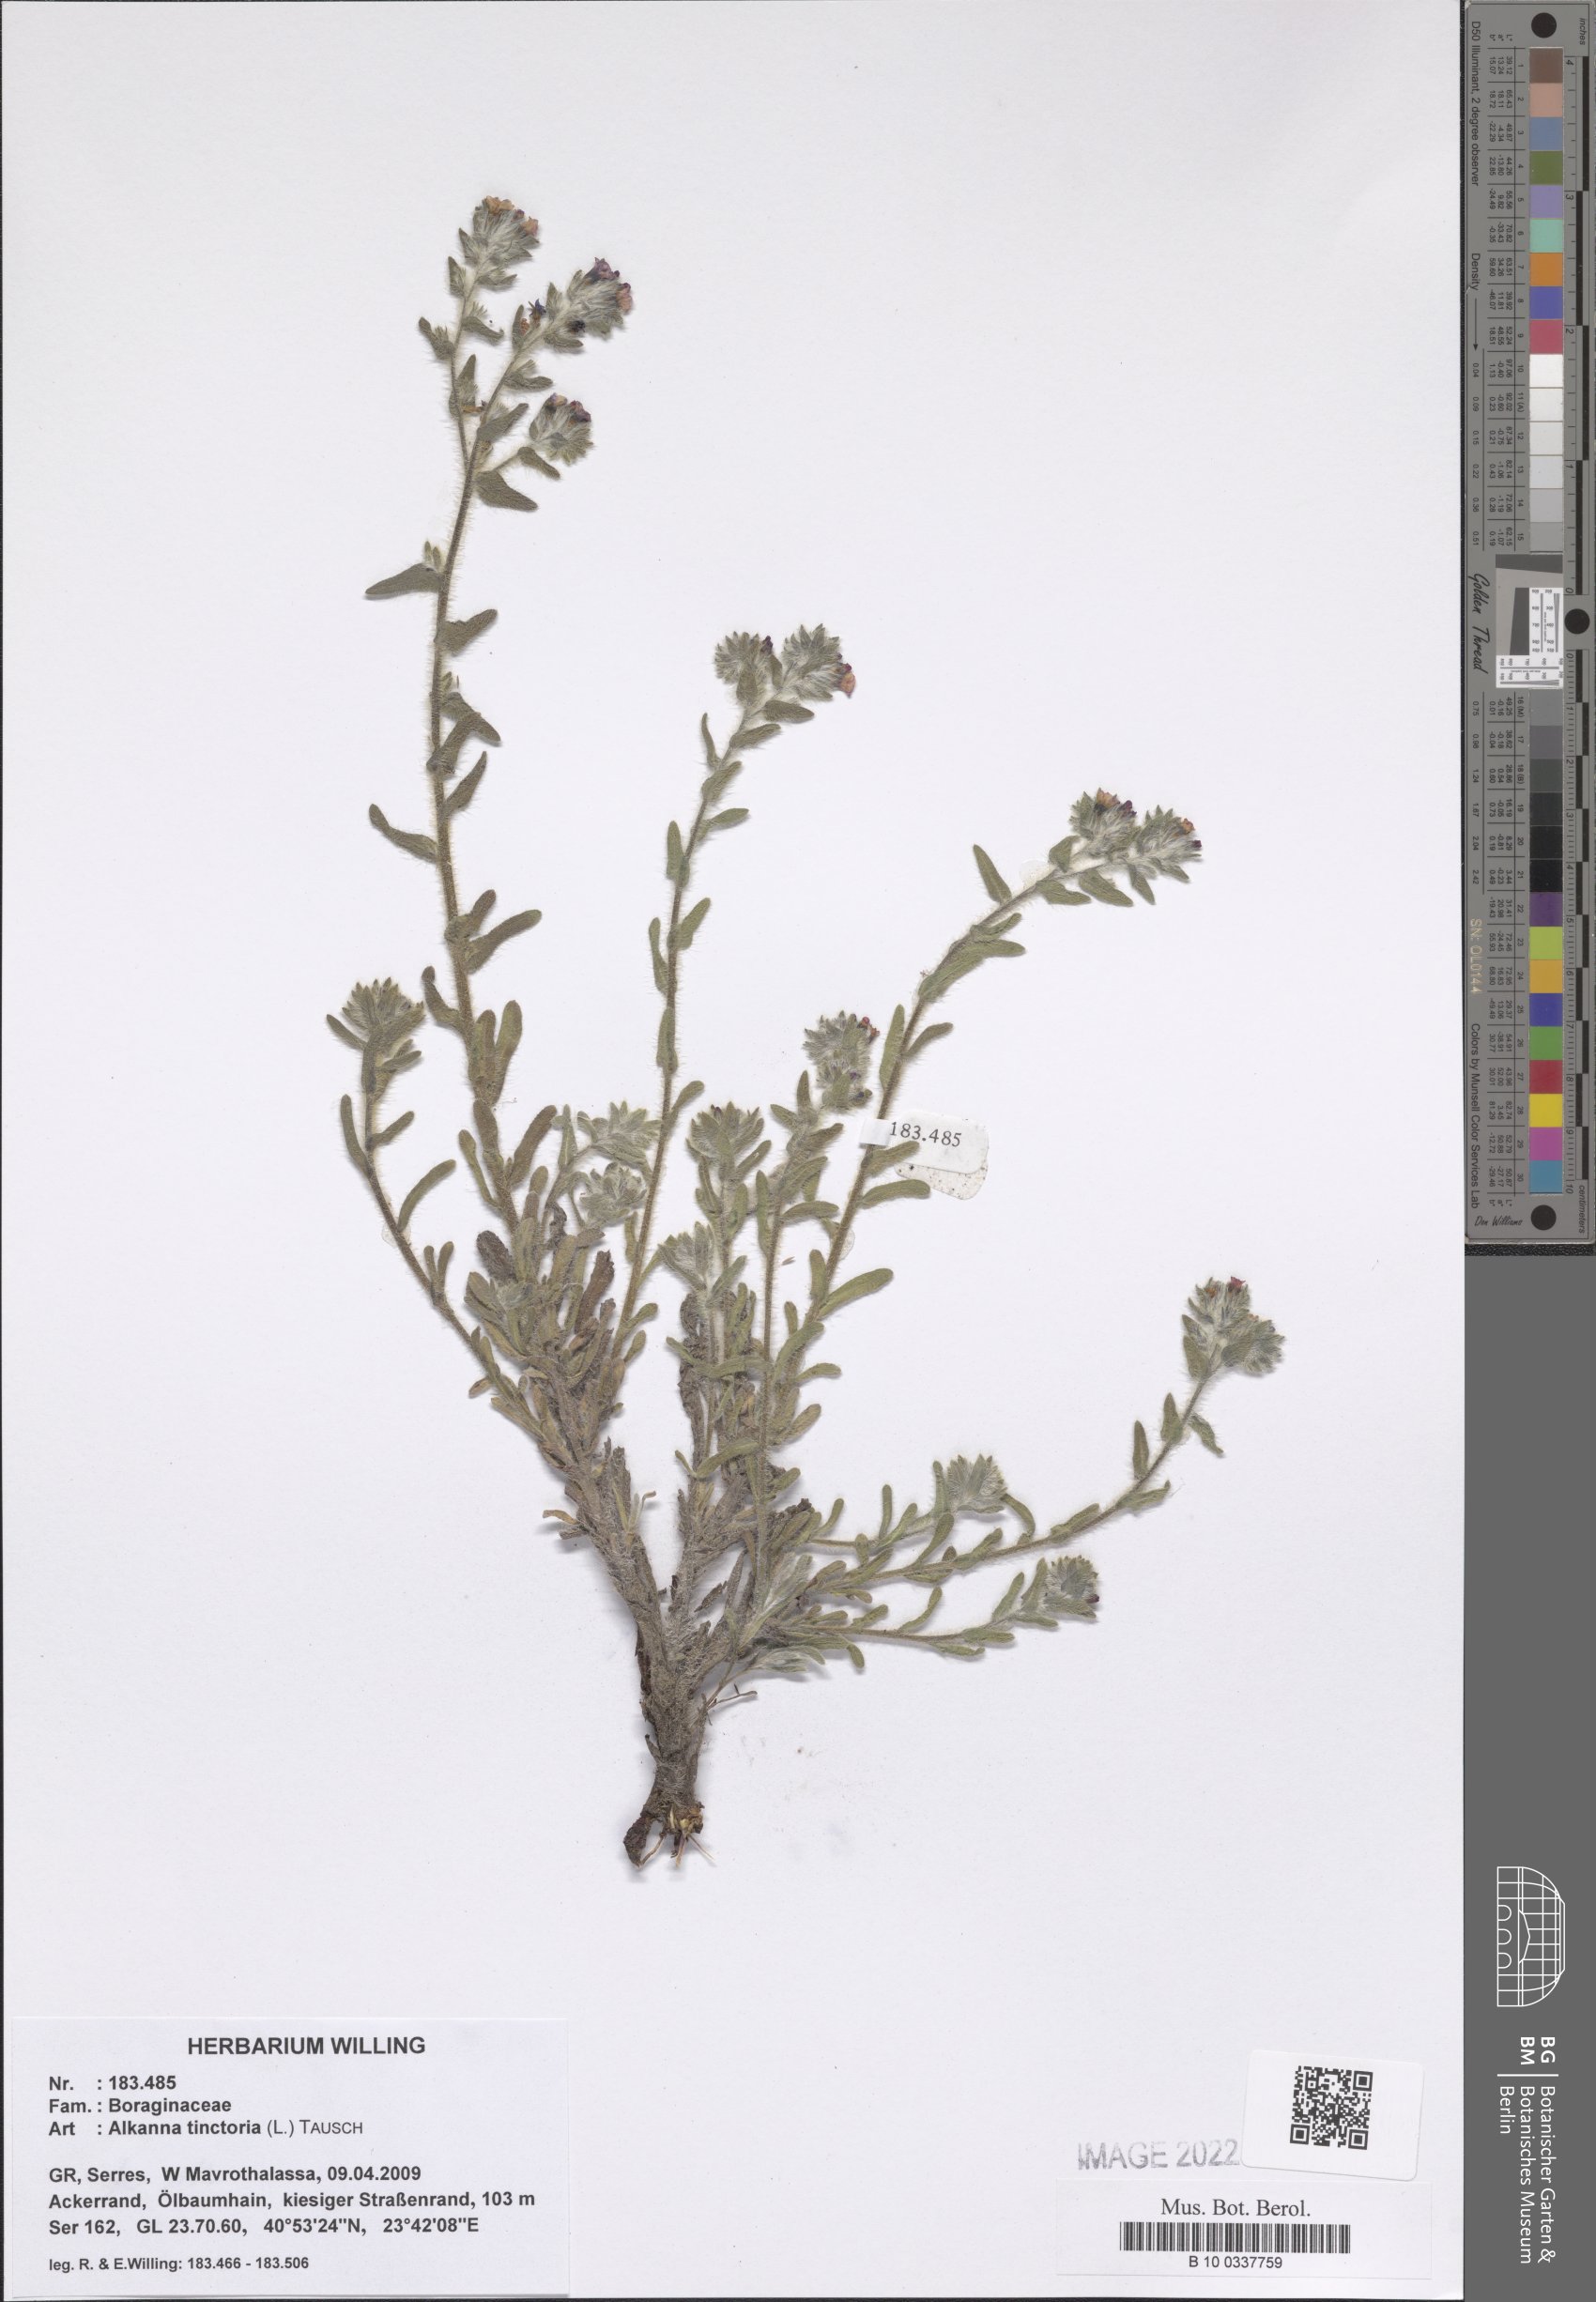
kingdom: Plantae
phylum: Tracheophyta
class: Magnoliopsida
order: Boraginales
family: Boraginaceae
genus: Alkanna
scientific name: Alkanna tinctoria
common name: Dyer's-alkanet
